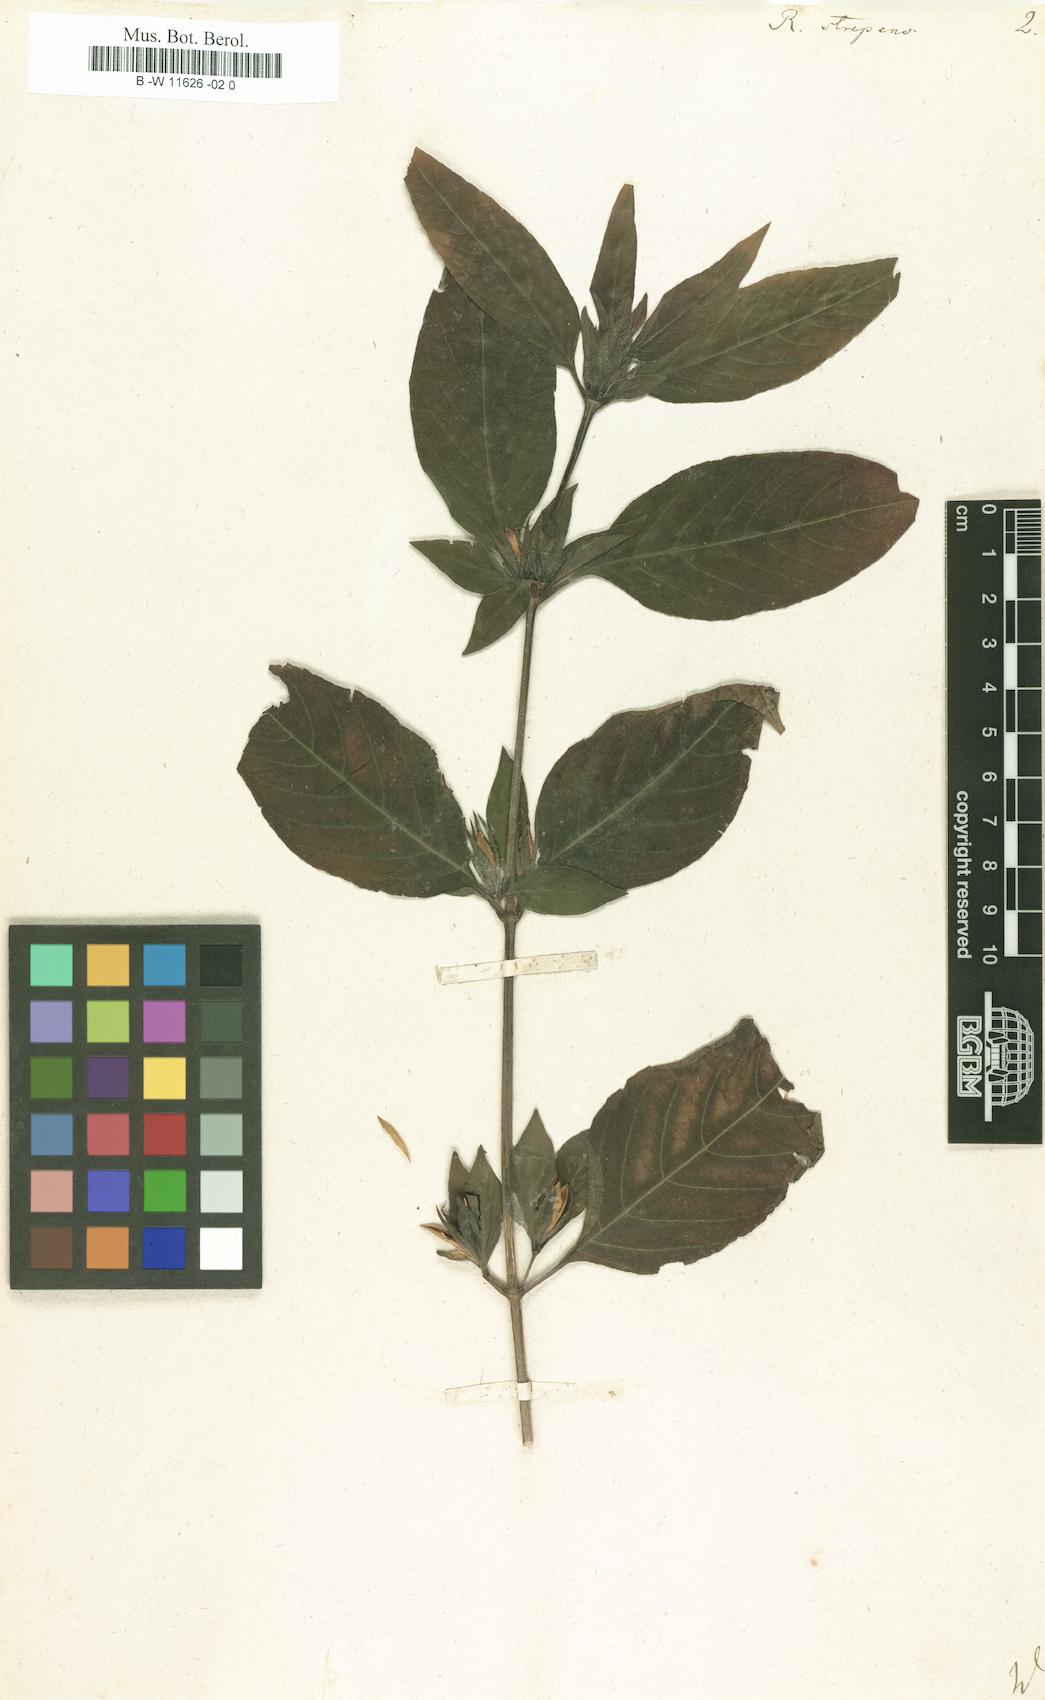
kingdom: Plantae
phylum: Tracheophyta
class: Magnoliopsida
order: Lamiales
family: Acanthaceae
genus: Ruellia
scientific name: Ruellia strepens
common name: Limestone wild petunia
